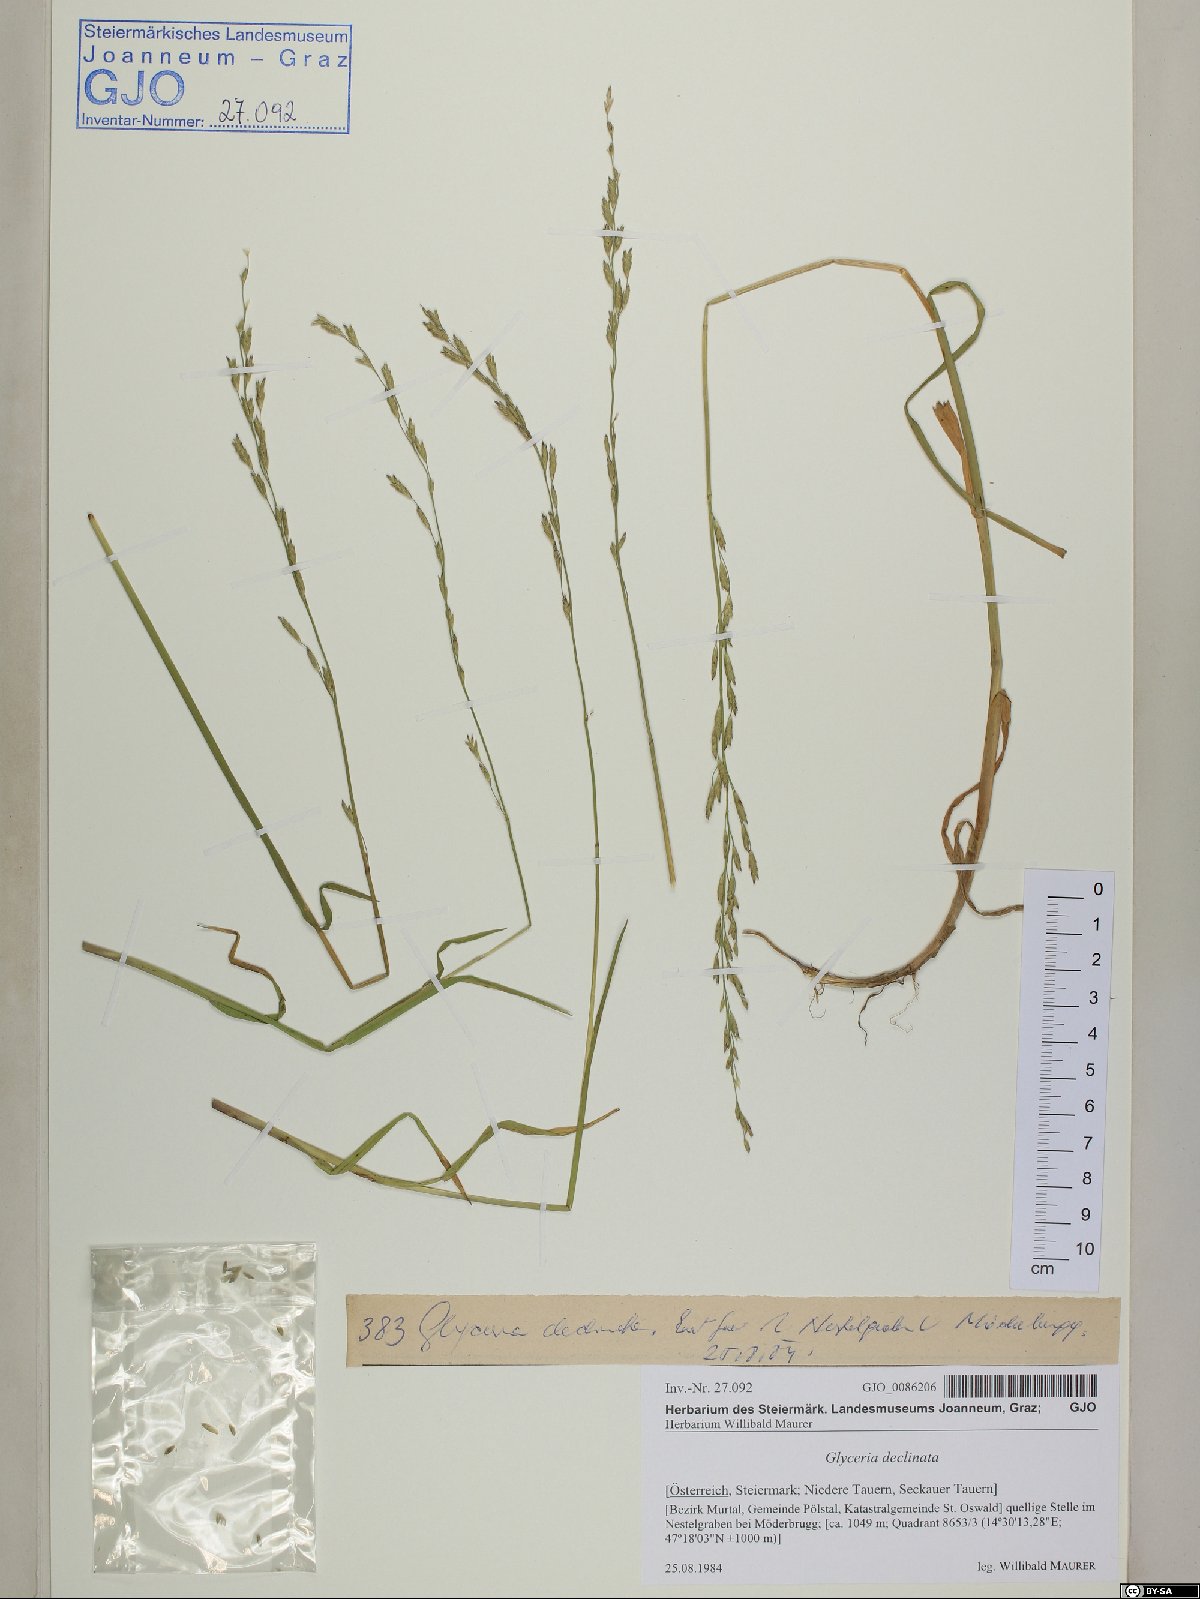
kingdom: Plantae
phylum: Tracheophyta
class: Liliopsida
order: Poales
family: Poaceae
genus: Glyceria
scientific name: Glyceria declinata
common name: Small sweet-grass
